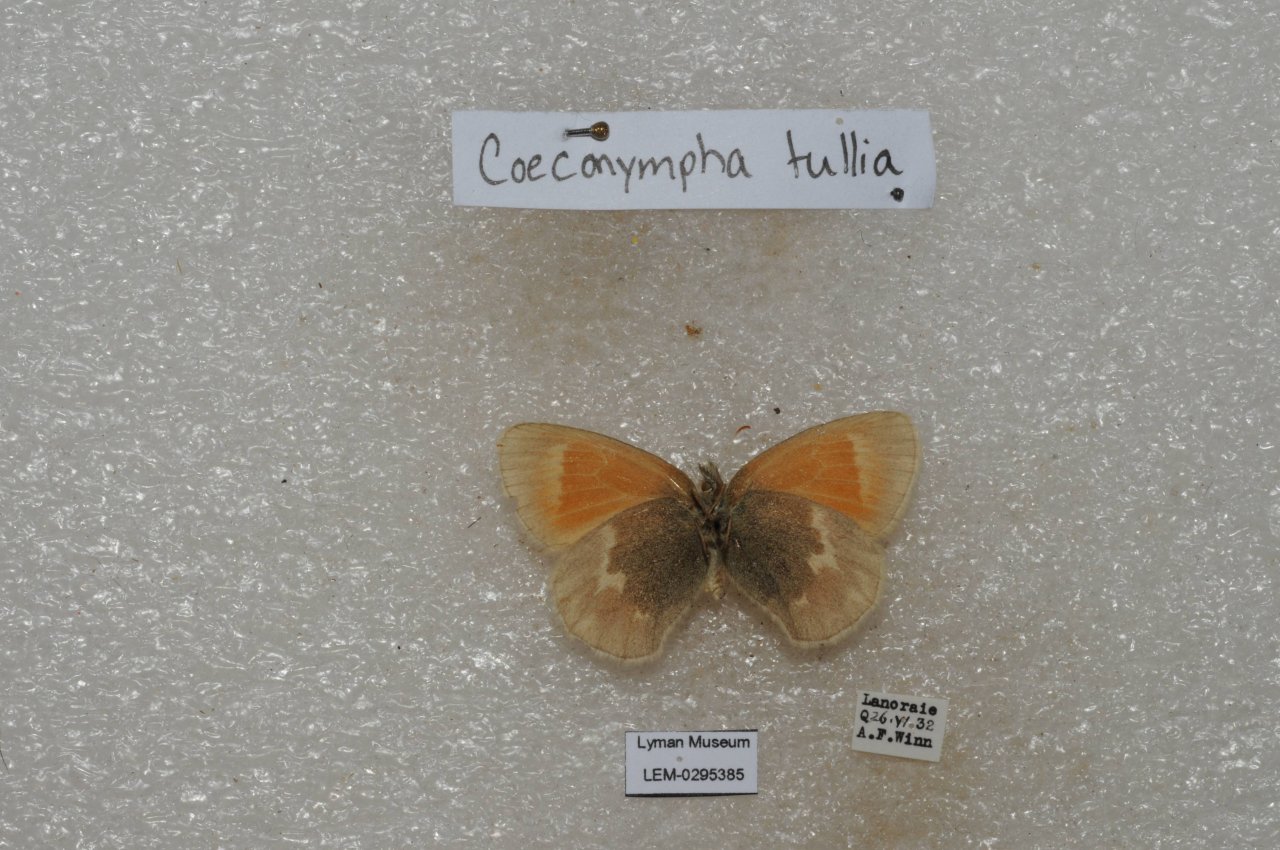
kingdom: Animalia
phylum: Arthropoda
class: Insecta
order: Lepidoptera
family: Nymphalidae
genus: Coenonympha
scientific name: Coenonympha tullia
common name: Large Heath
